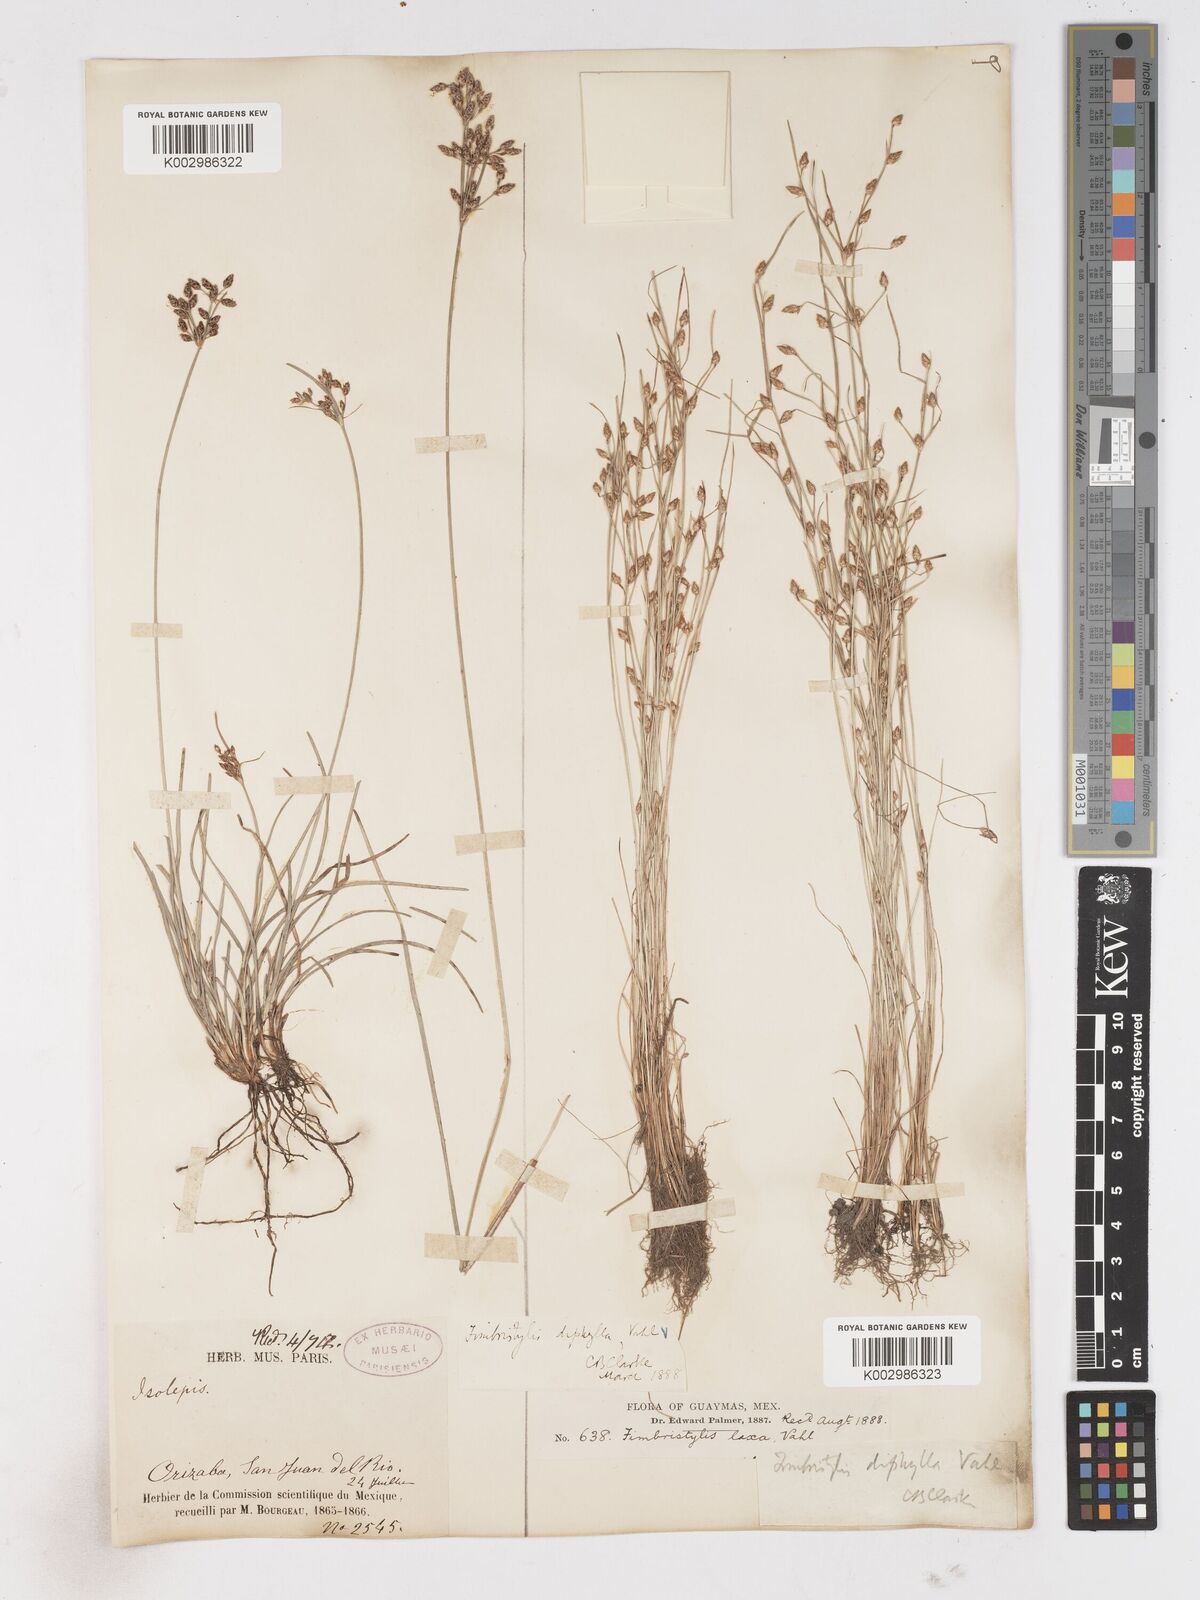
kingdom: Plantae
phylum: Tracheophyta
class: Liliopsida
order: Poales
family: Cyperaceae
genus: Fimbristylis
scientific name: Fimbristylis dichotoma
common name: Forked fimbry
